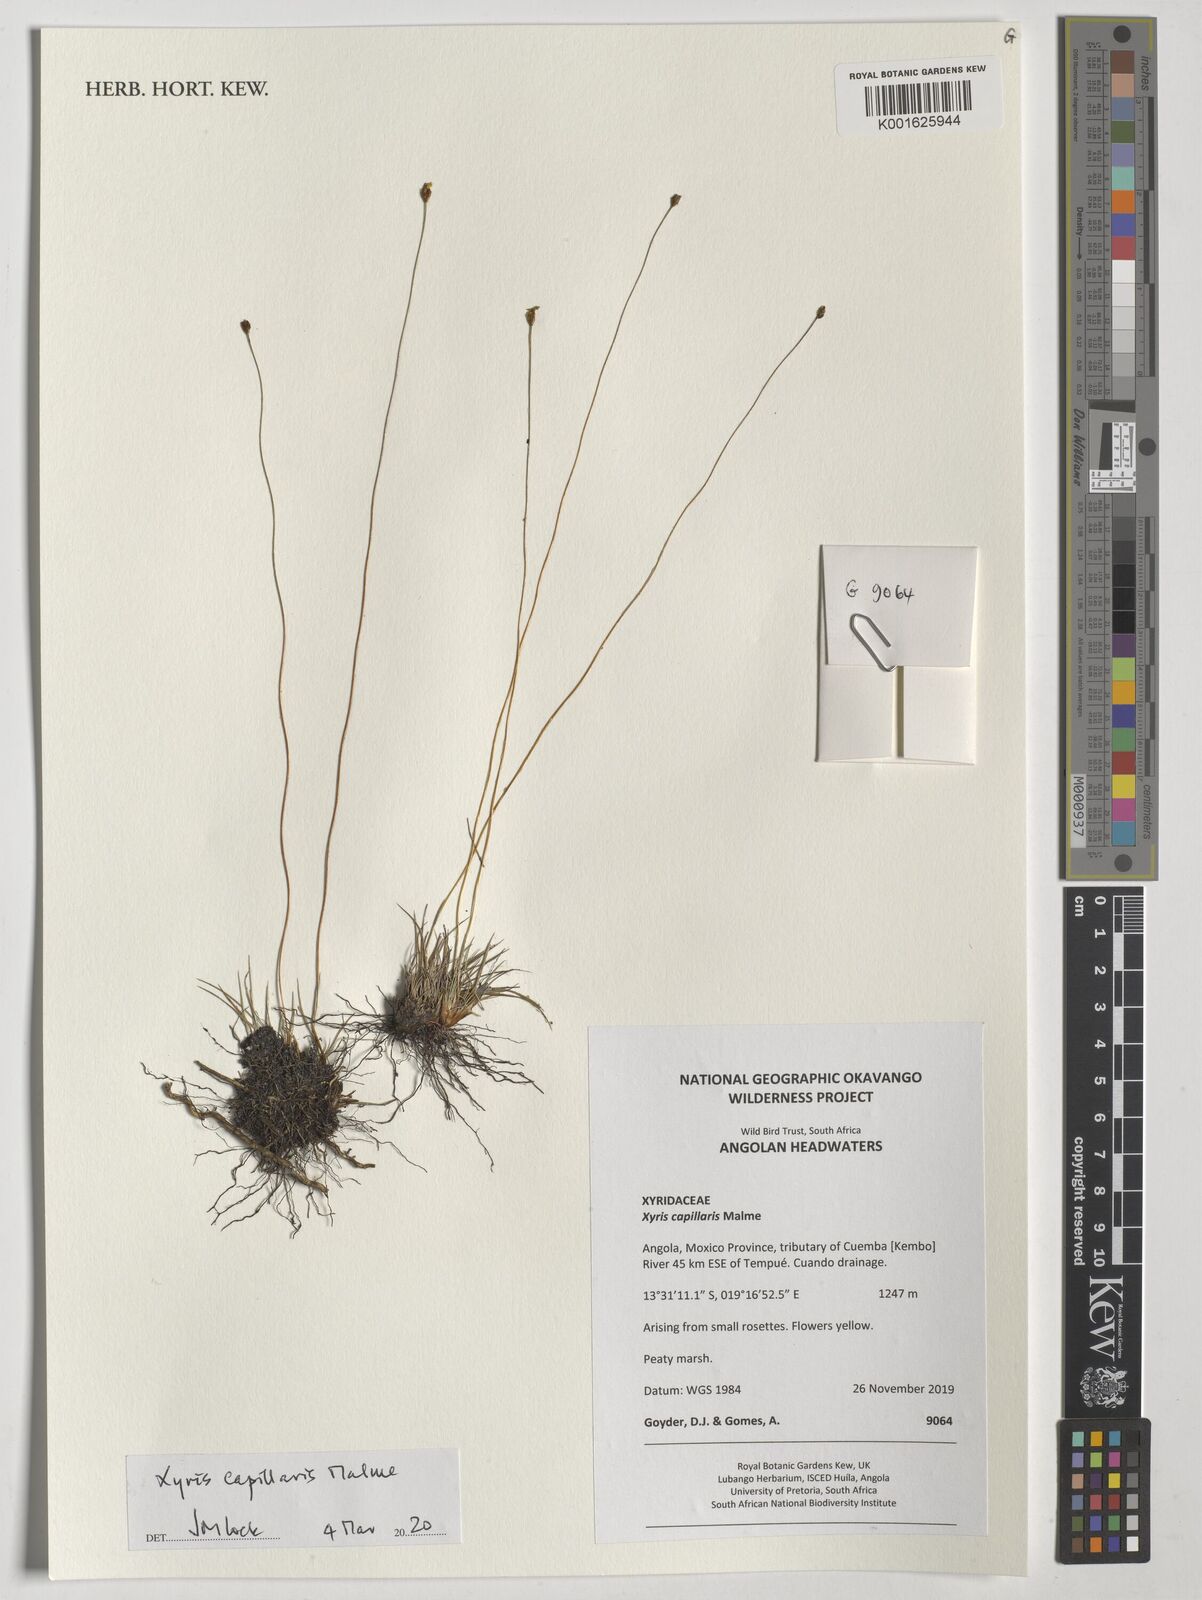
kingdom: Plantae
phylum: Tracheophyta
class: Liliopsida
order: Poales
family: Xyridaceae
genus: Xyris
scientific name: Xyris capillaris
